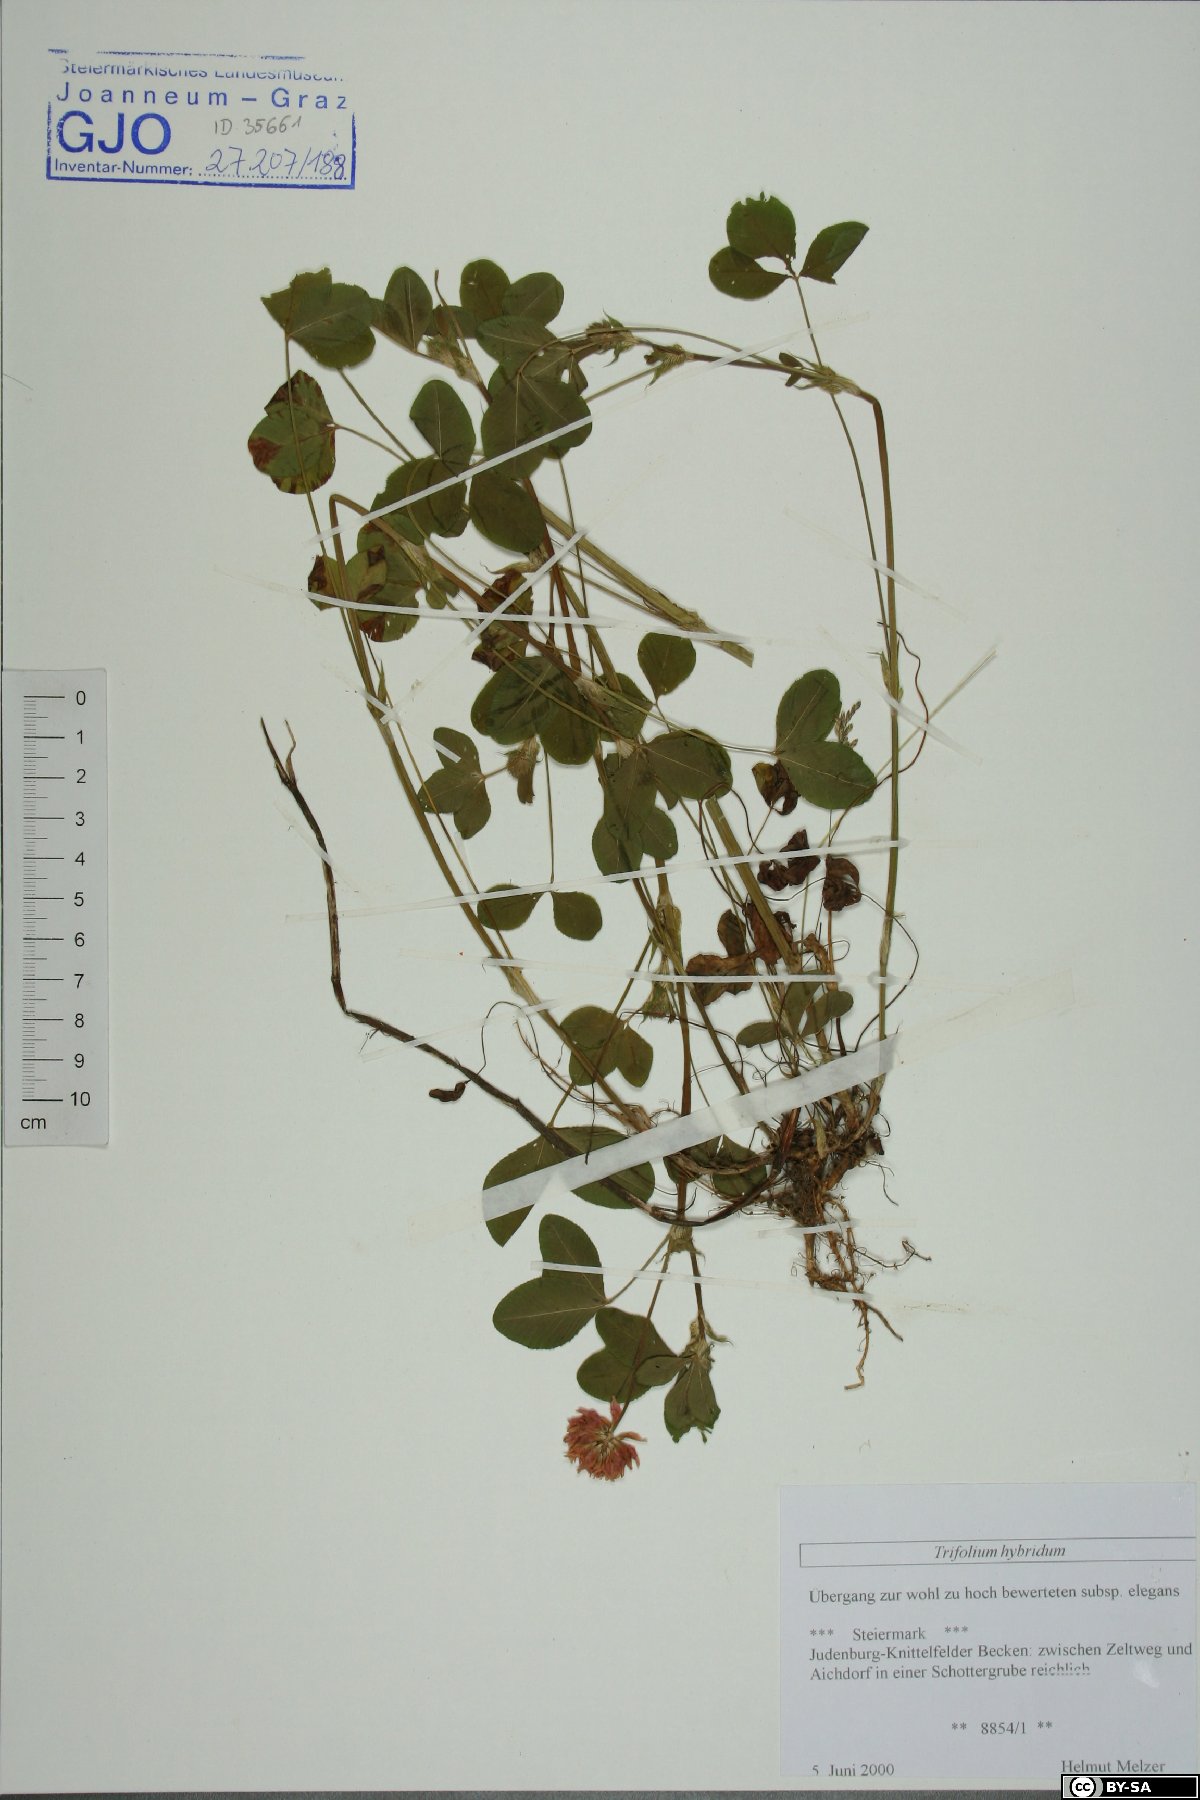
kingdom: Plantae
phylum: Tracheophyta
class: Magnoliopsida
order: Fabales
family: Fabaceae
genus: Trifolium
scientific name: Trifolium hybridum
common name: Alsike clover
